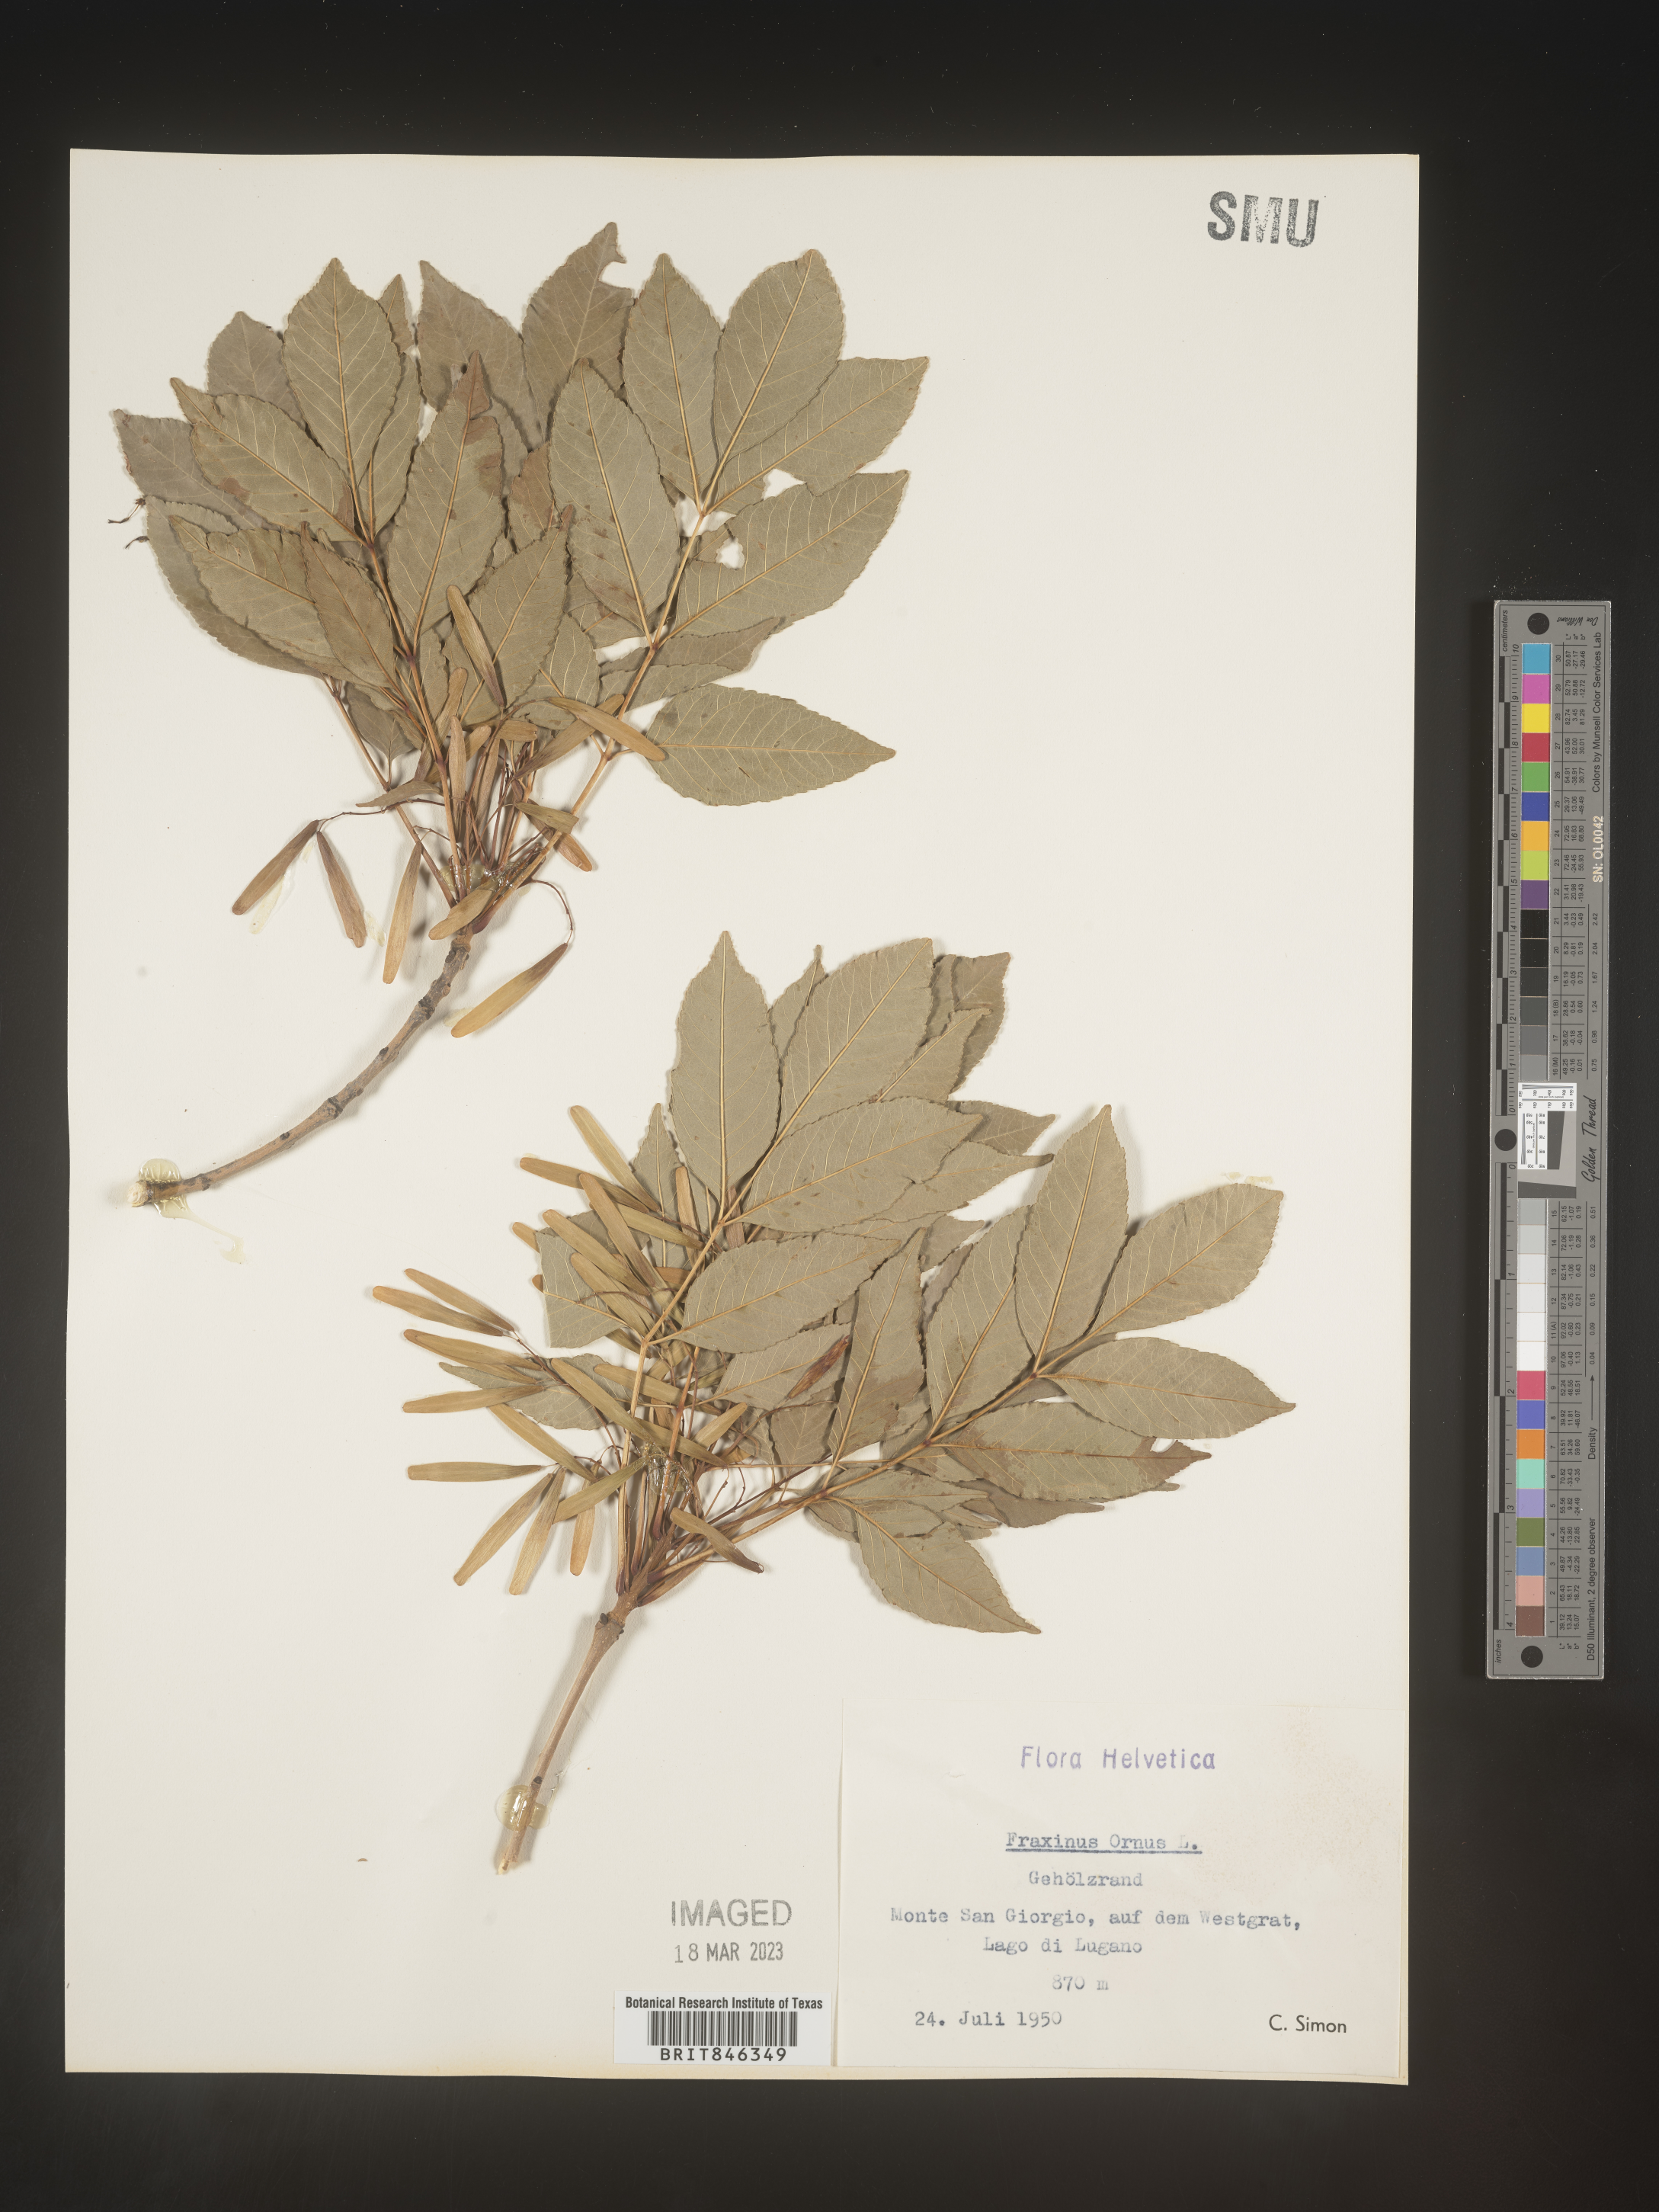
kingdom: Plantae
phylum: Tracheophyta
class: Magnoliopsida
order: Lamiales
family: Oleaceae
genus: Fraxinus
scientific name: Fraxinus
